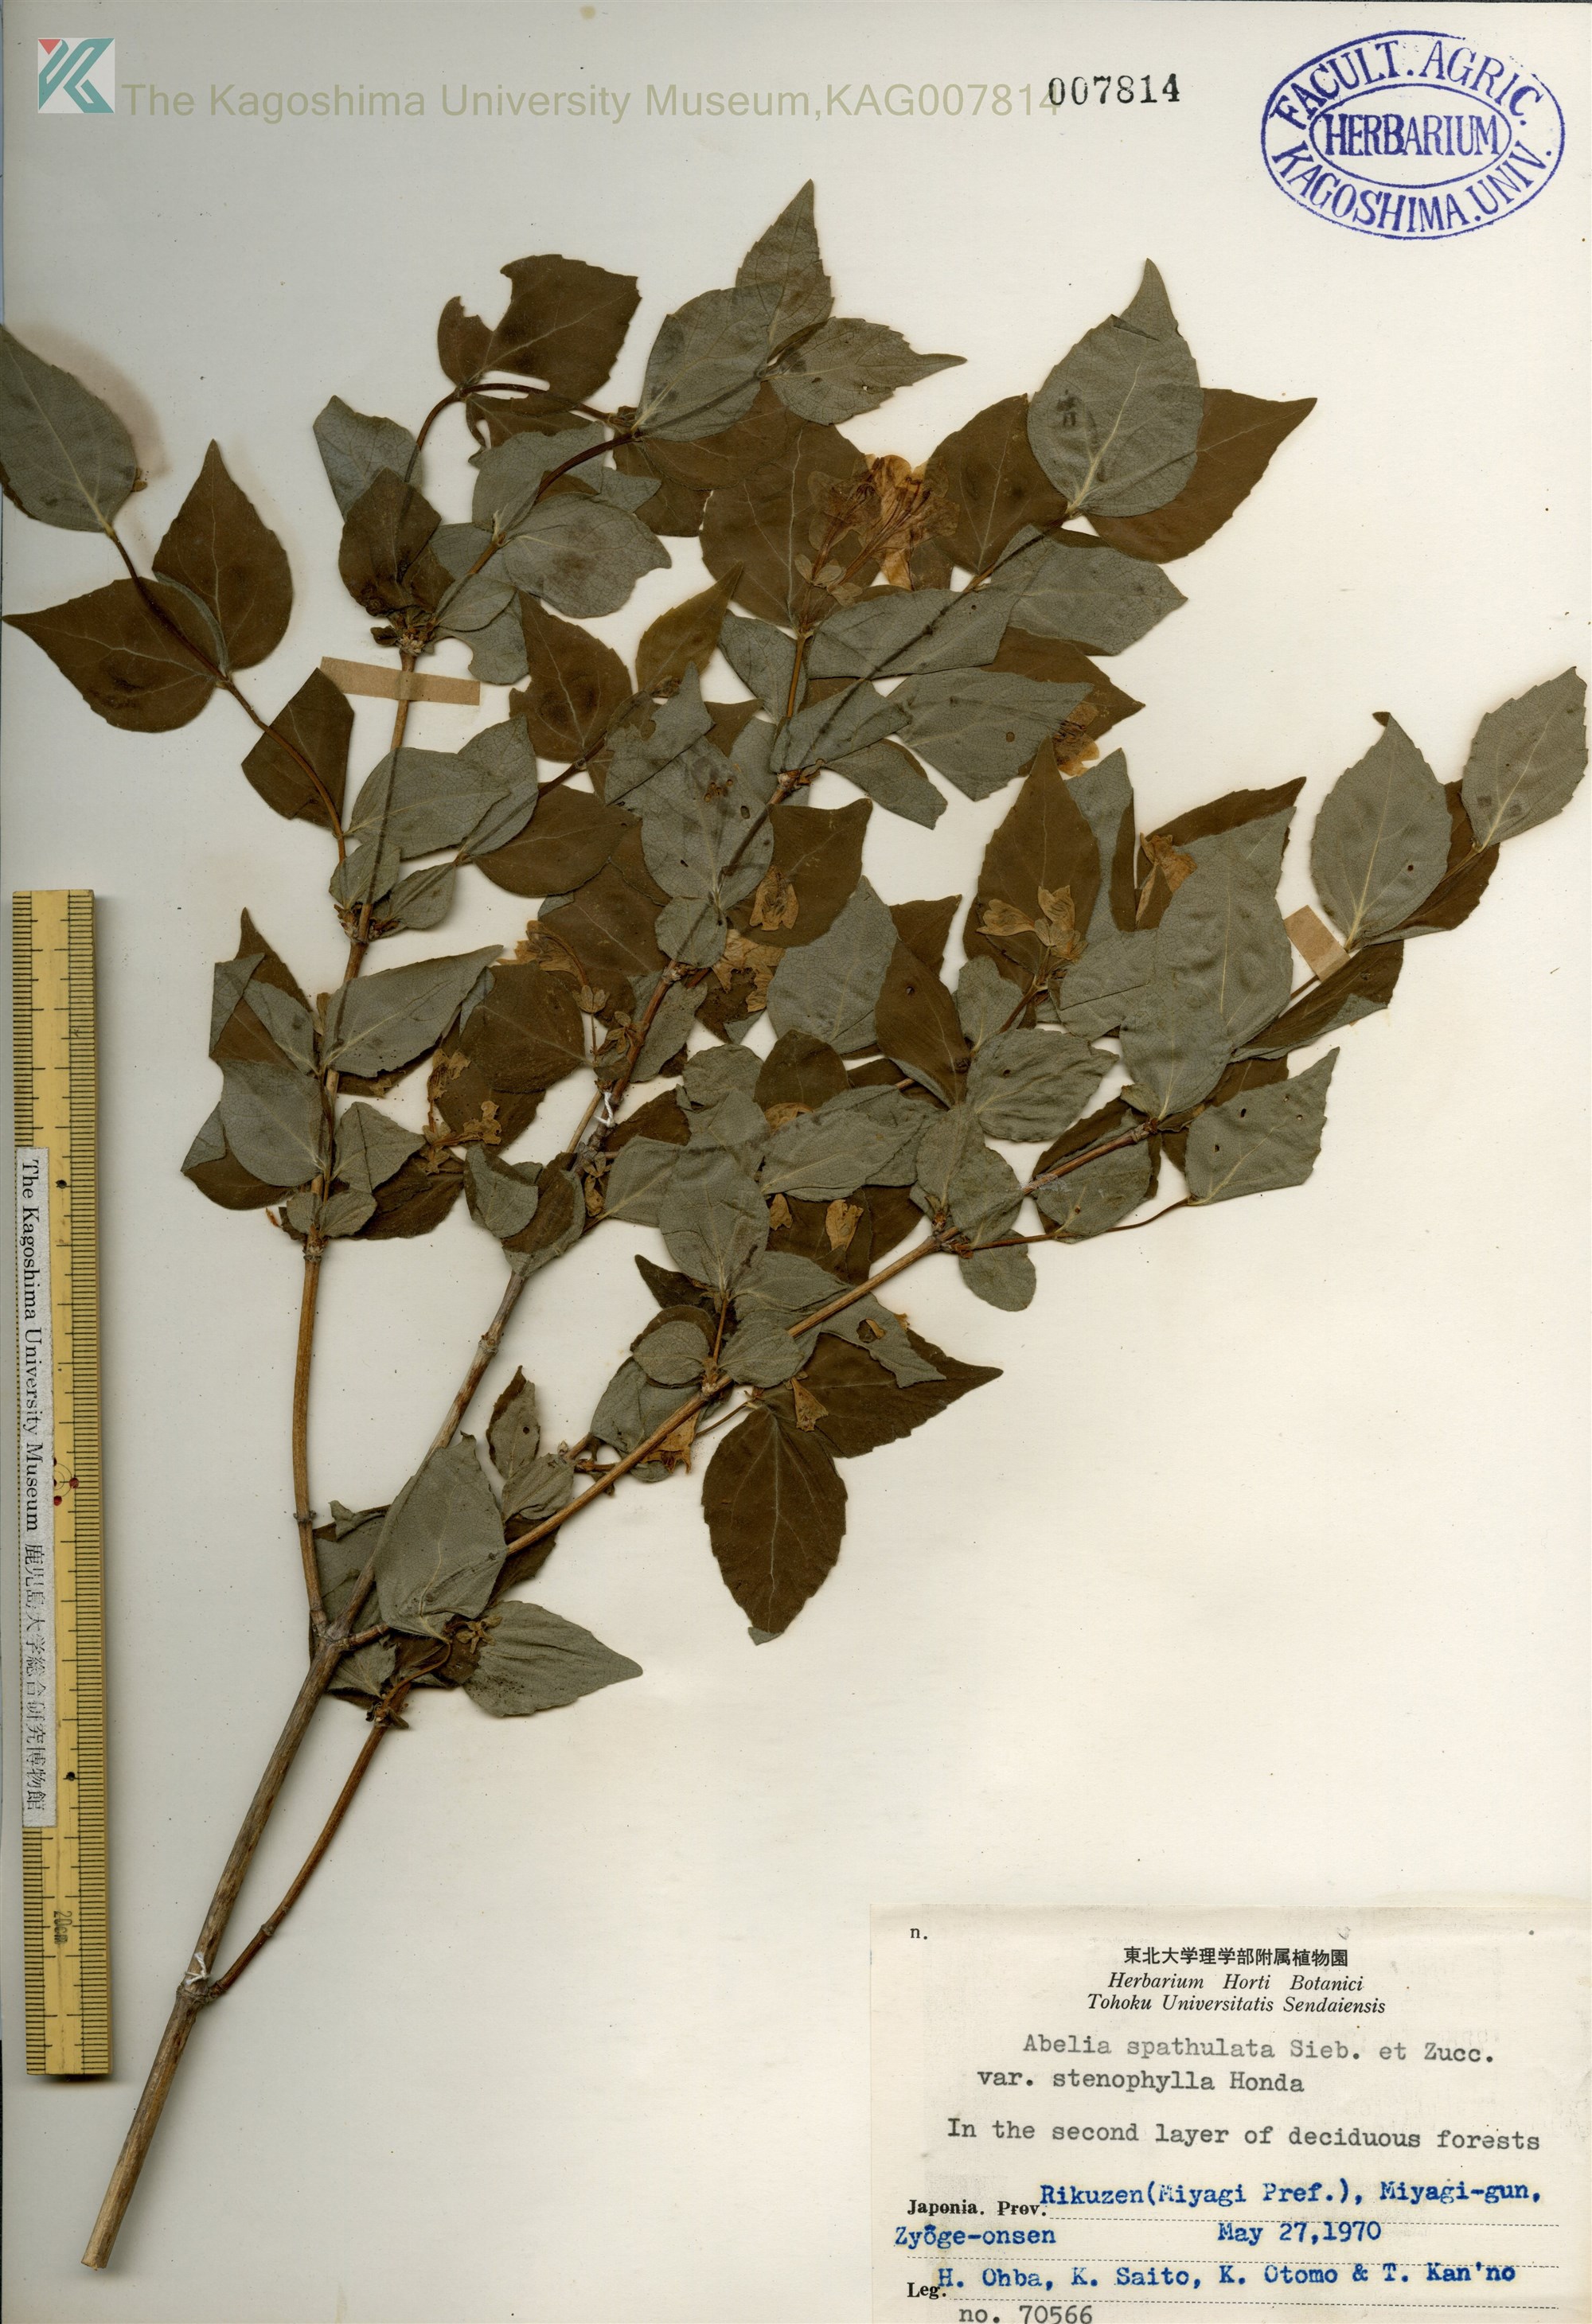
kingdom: Plantae
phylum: Tracheophyta
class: Magnoliopsida
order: Dipsacales
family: Caprifoliaceae
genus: Diabelia
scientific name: Diabelia spathulata
